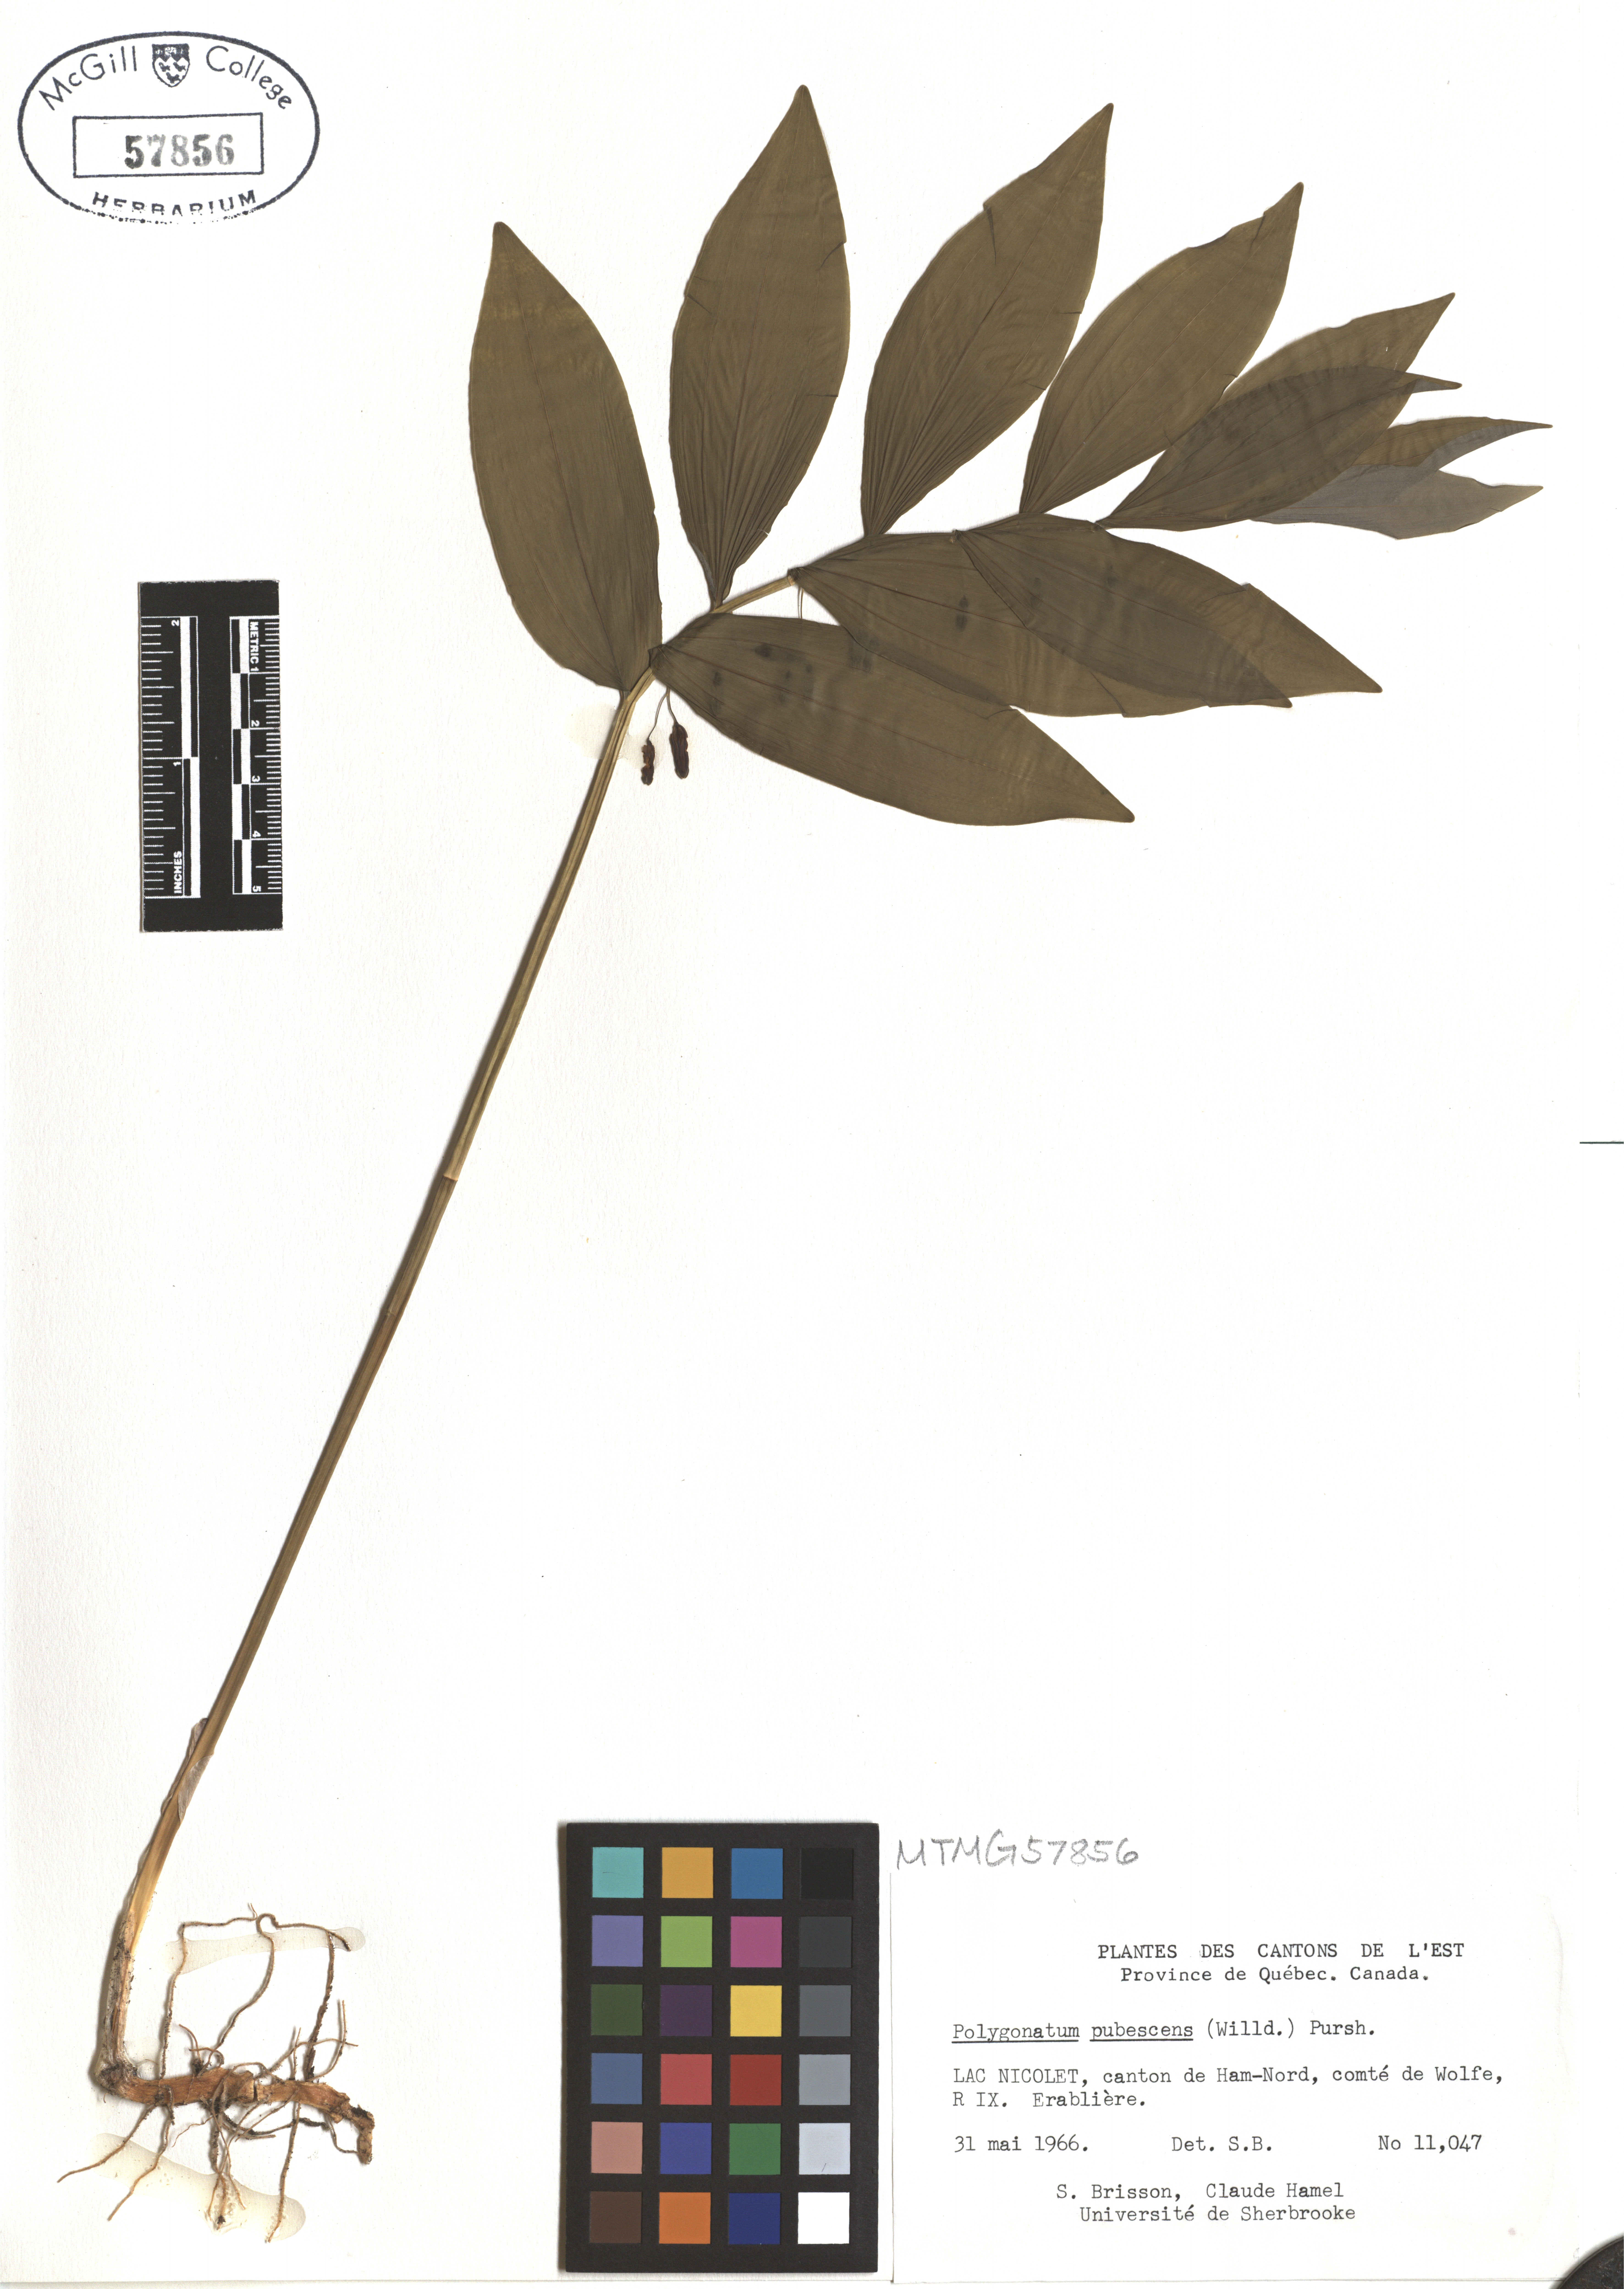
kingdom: Plantae
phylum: Tracheophyta
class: Liliopsida
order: Asparagales
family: Asparagaceae
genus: Polygonatum
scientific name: Polygonatum pubescens
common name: Downy solomon's seal
